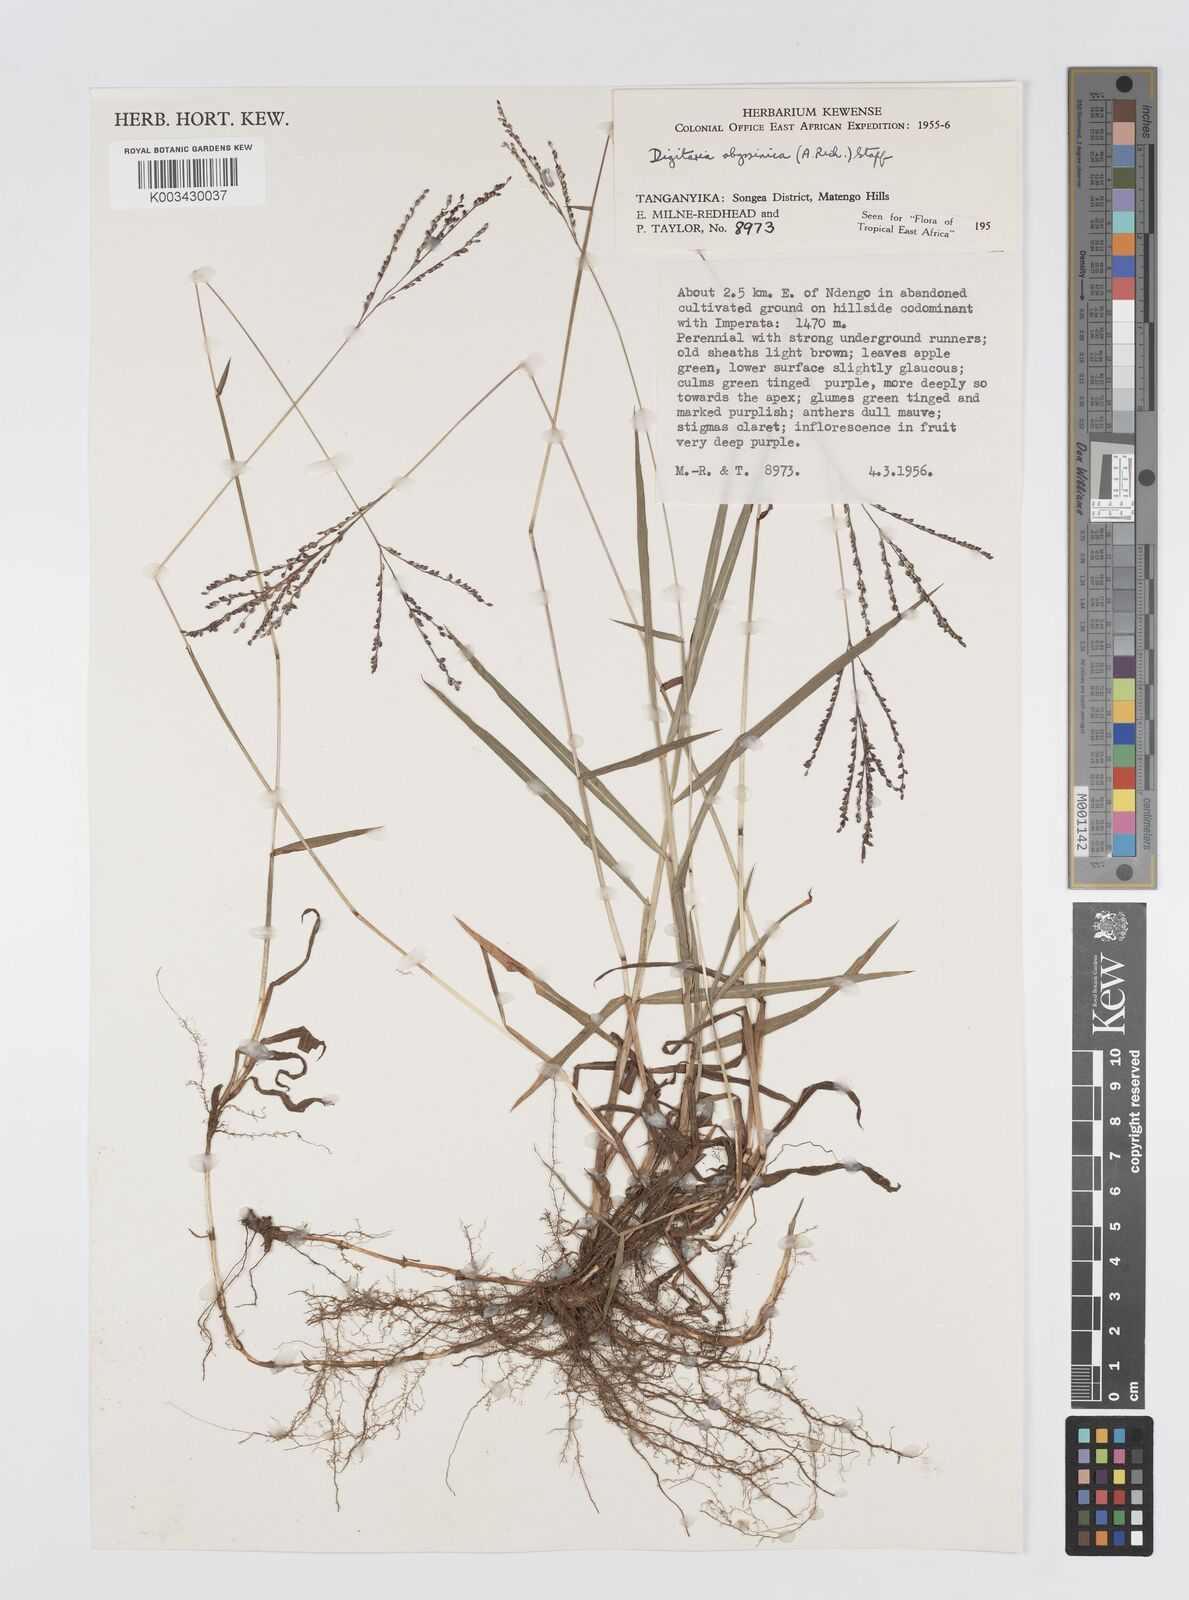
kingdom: Plantae
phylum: Tracheophyta
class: Liliopsida
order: Poales
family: Poaceae
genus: Digitaria
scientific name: Digitaria abyssinica
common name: African couchgrass
